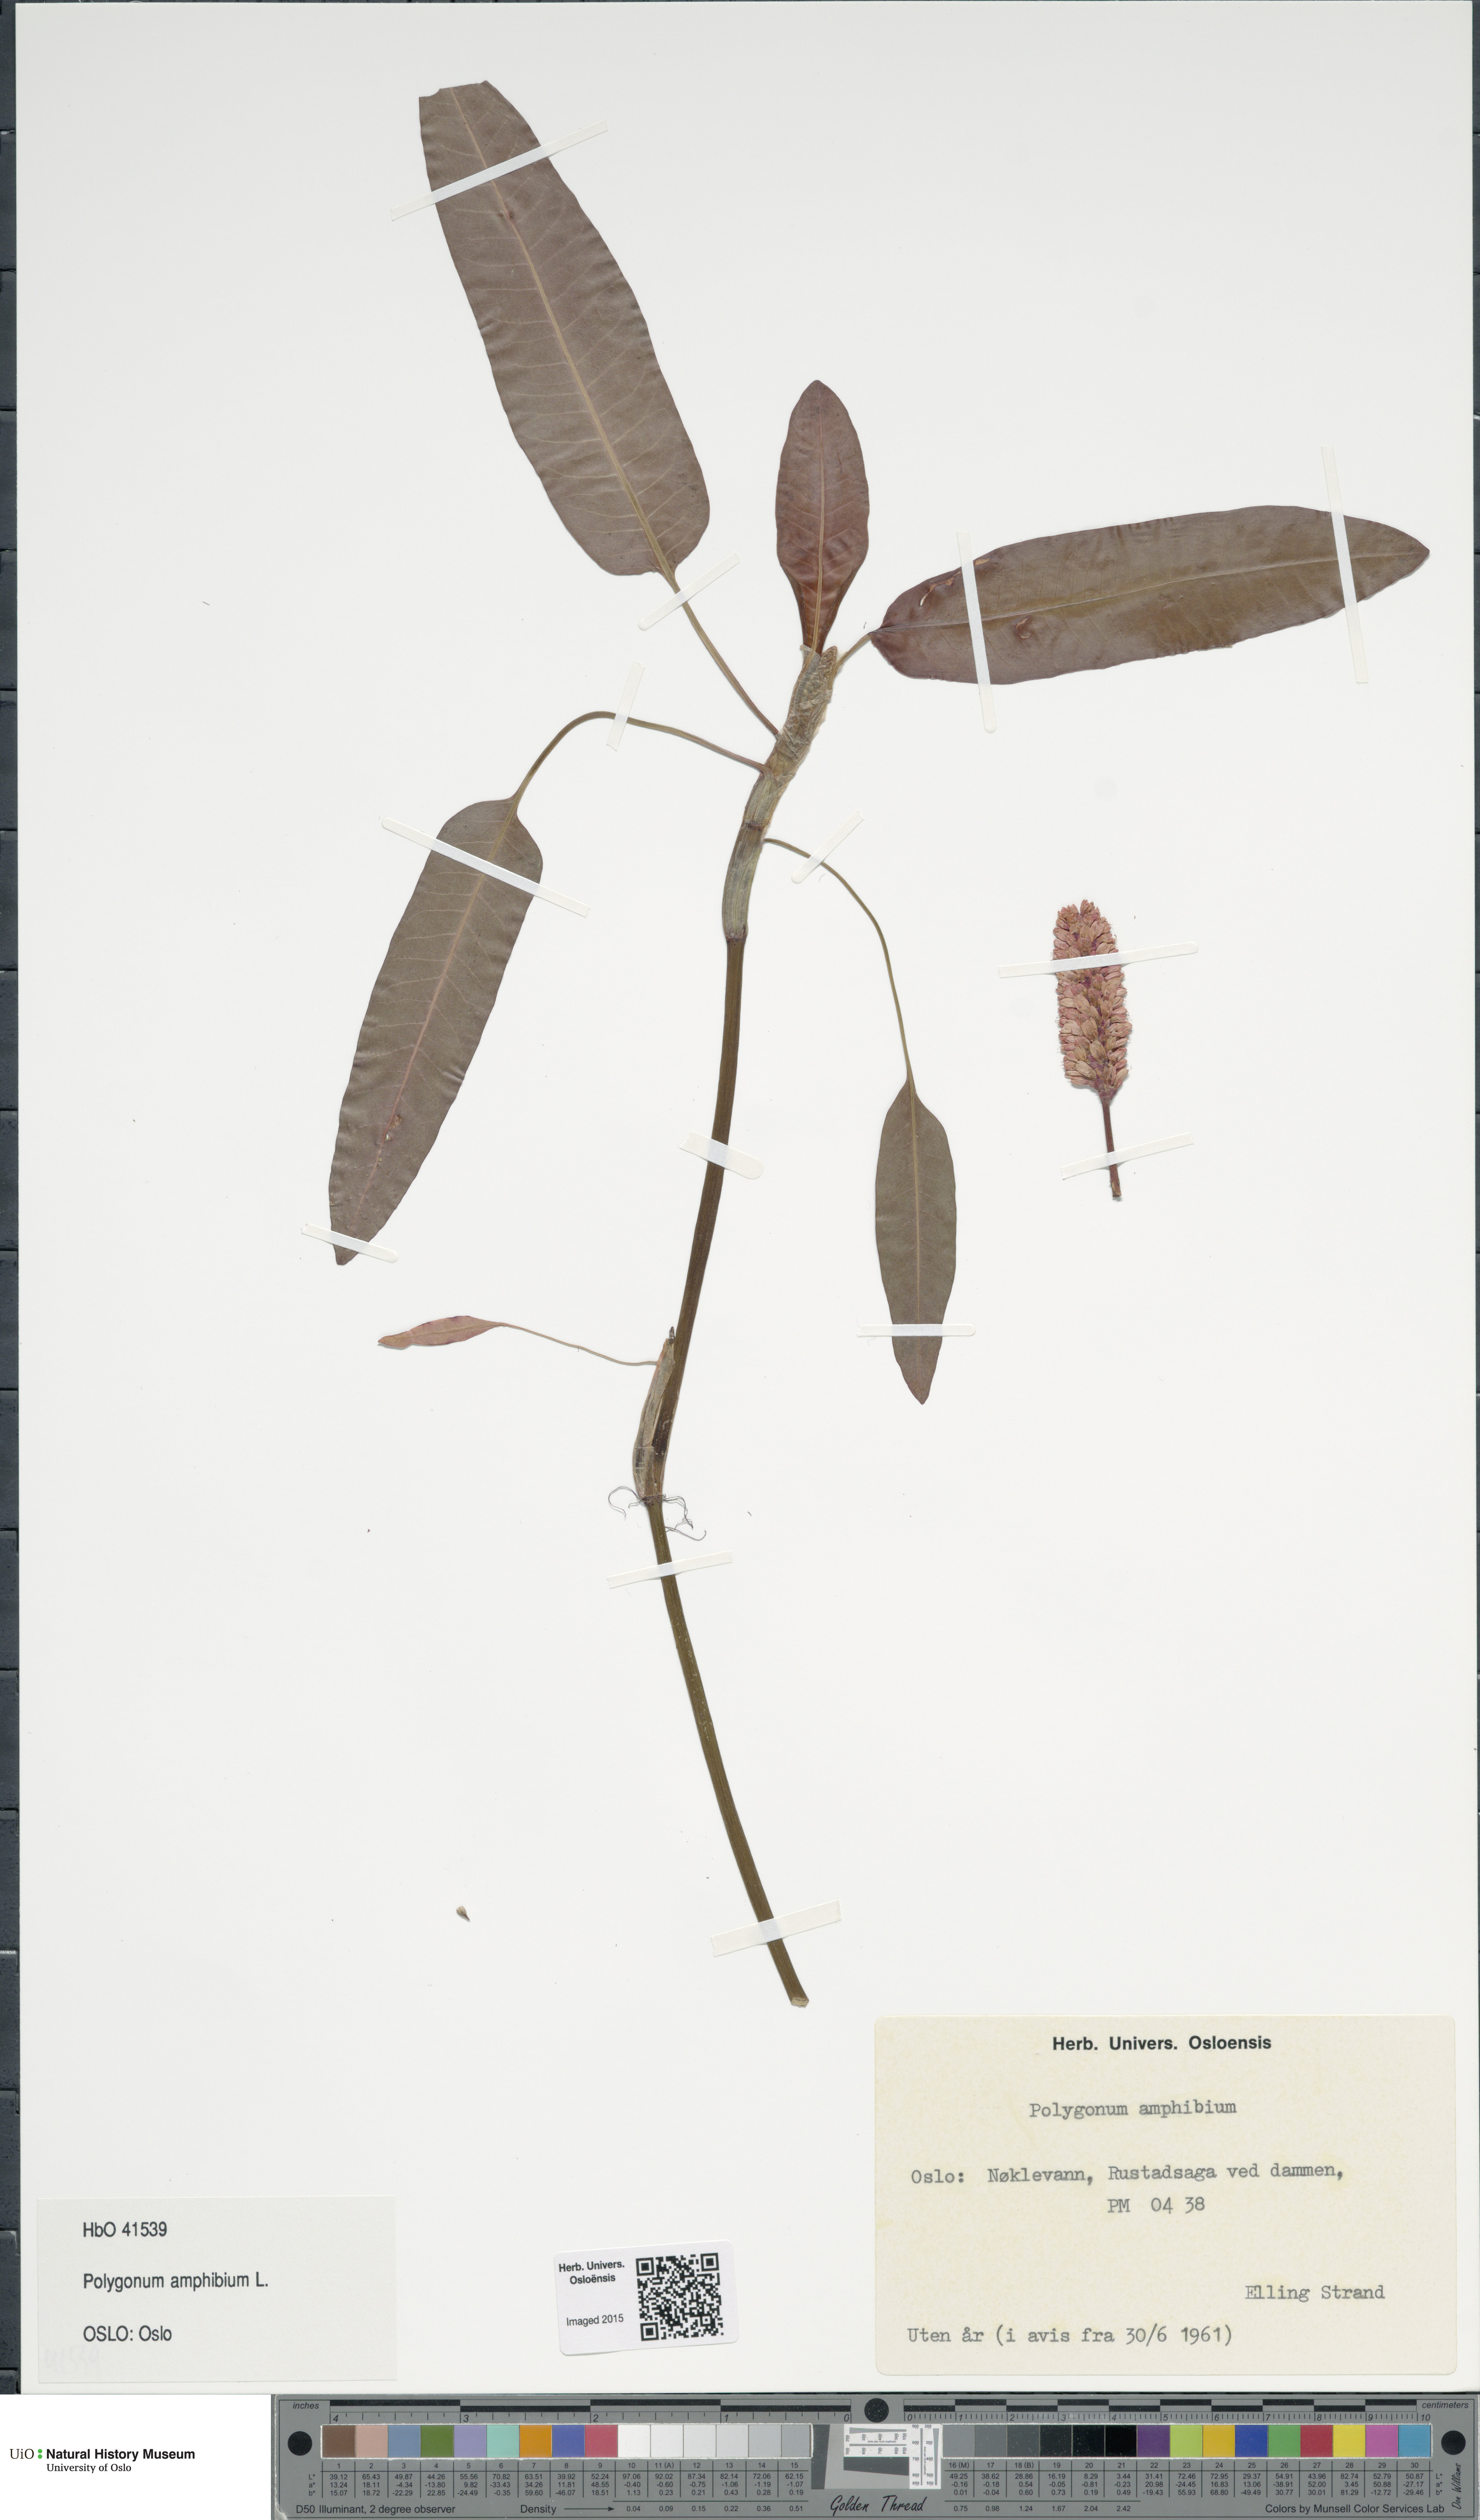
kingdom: Plantae
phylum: Tracheophyta
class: Magnoliopsida
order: Caryophyllales
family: Polygonaceae
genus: Persicaria
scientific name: Persicaria amphibia
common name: Amphibious bistort
